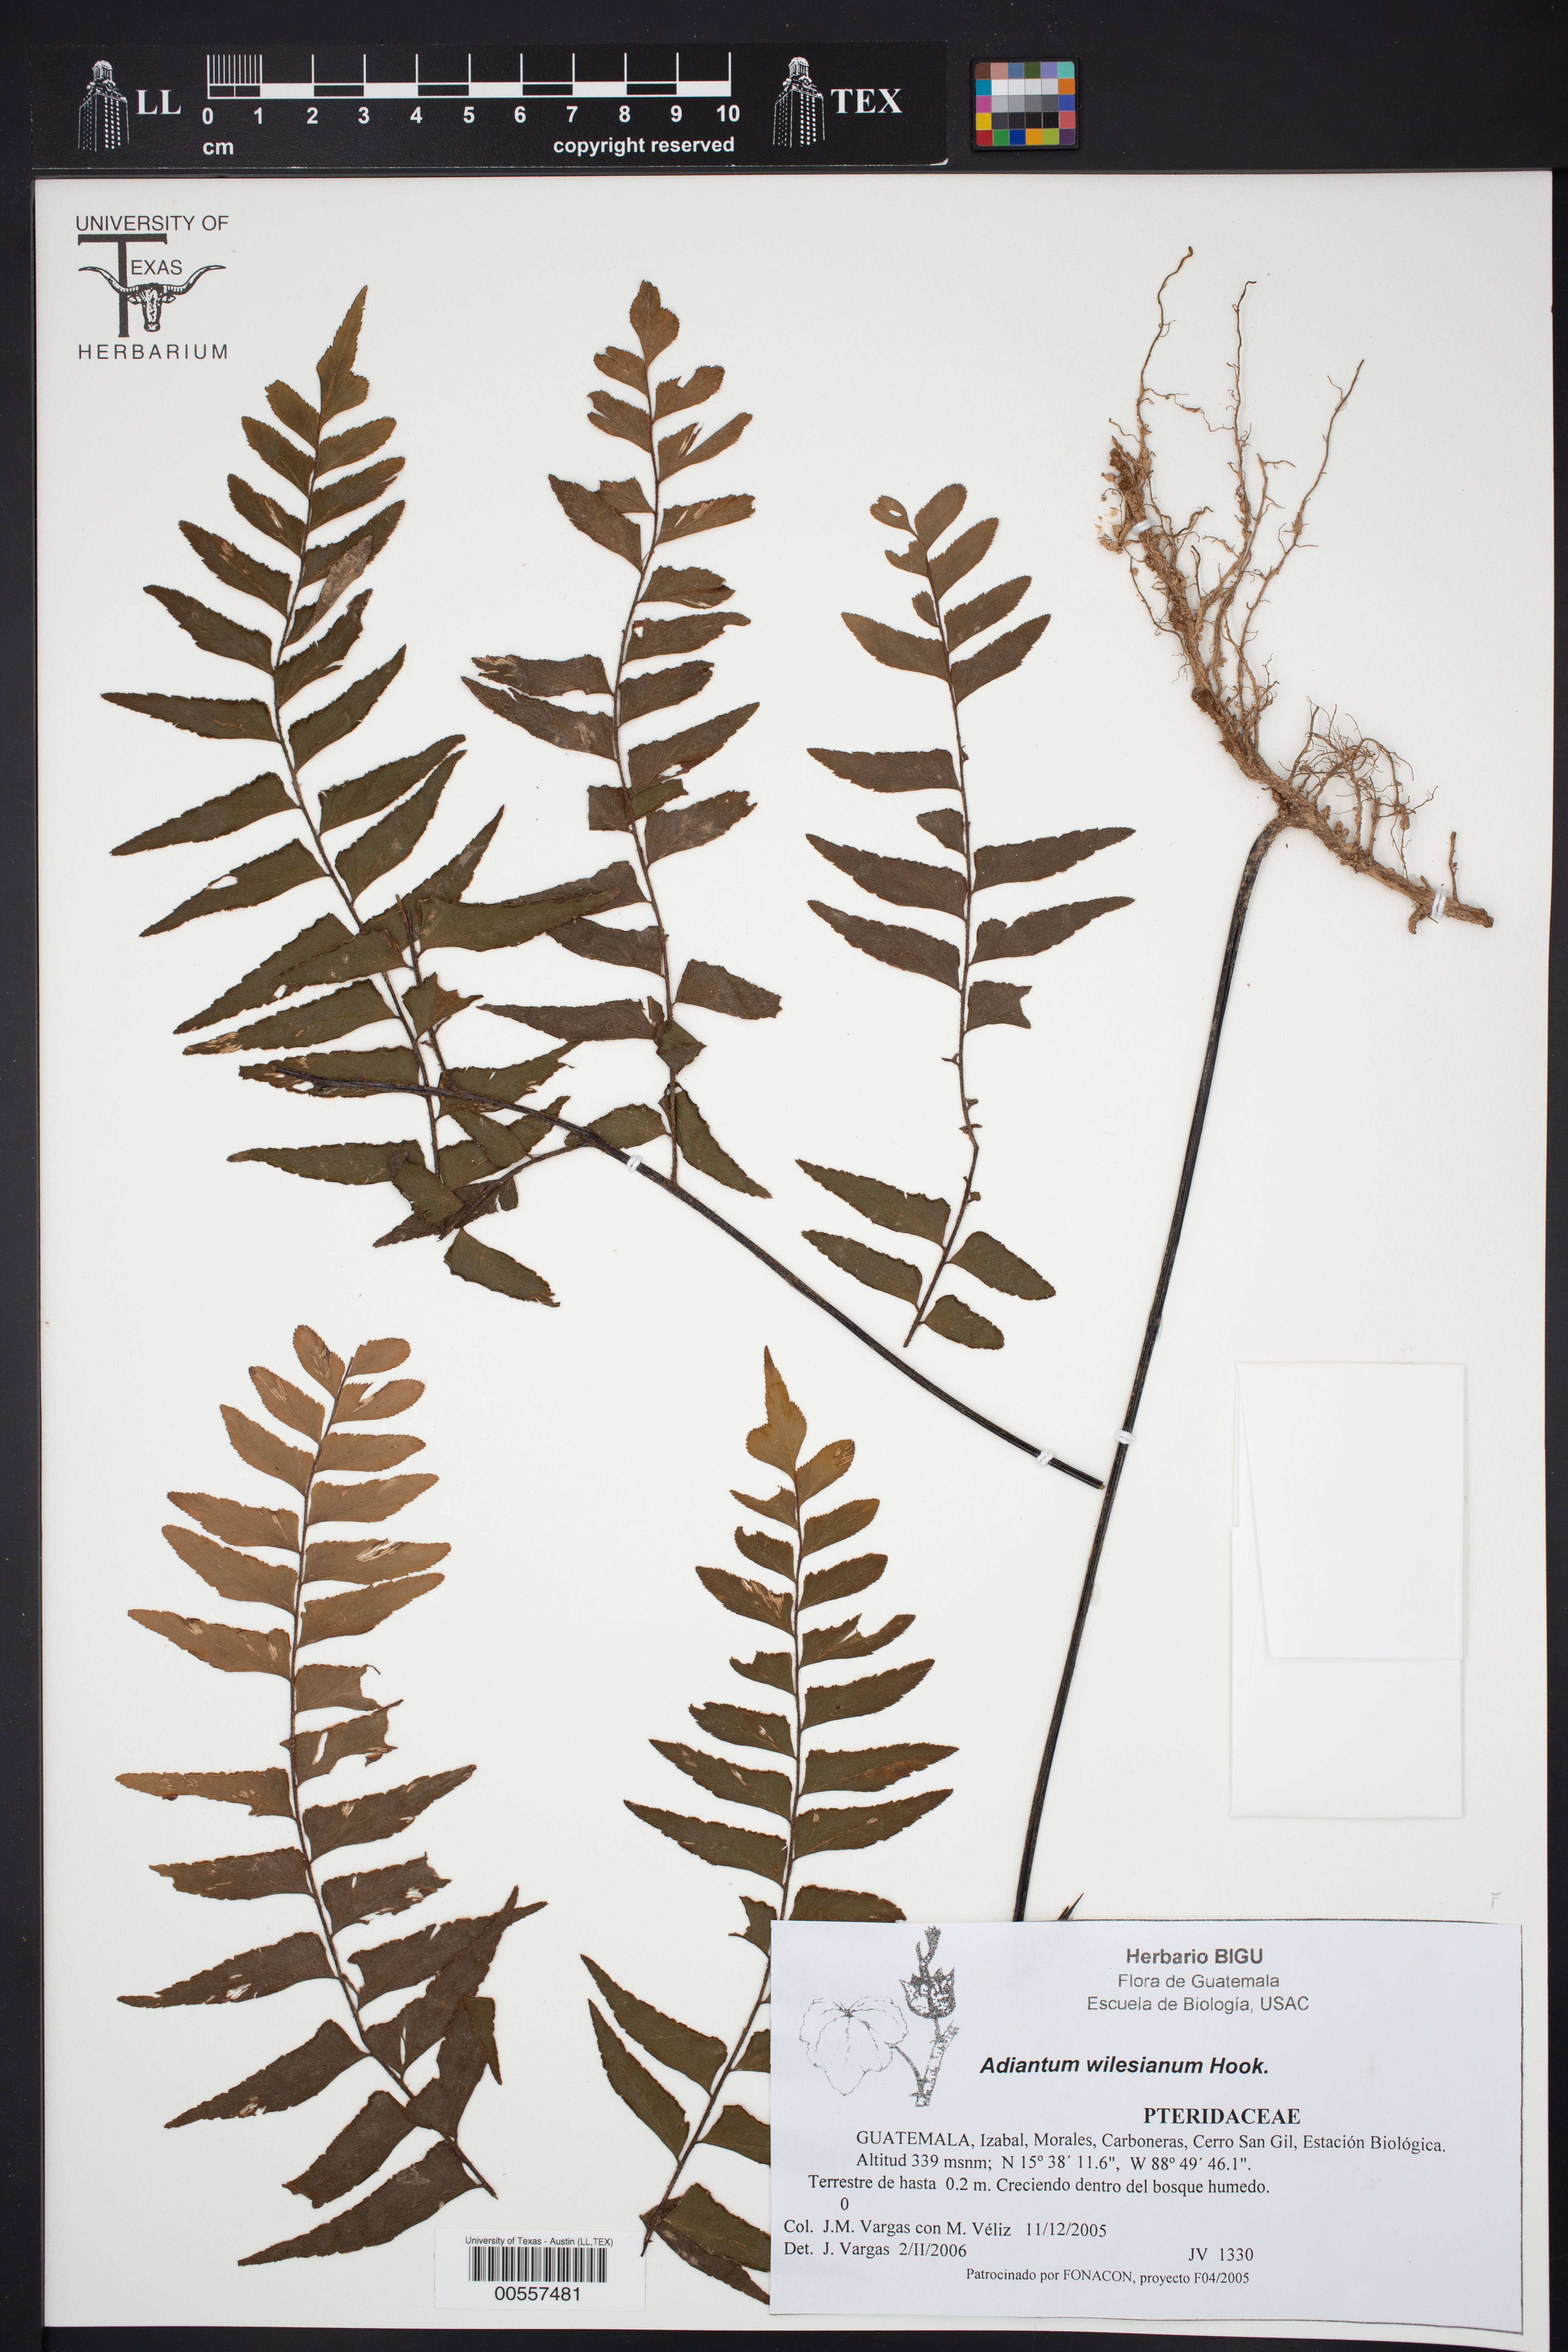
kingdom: Plantae
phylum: Tracheophyta
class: Polypodiopsida
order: Polypodiales
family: Pteridaceae
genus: Adiantum
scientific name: Adiantum wilesianum
